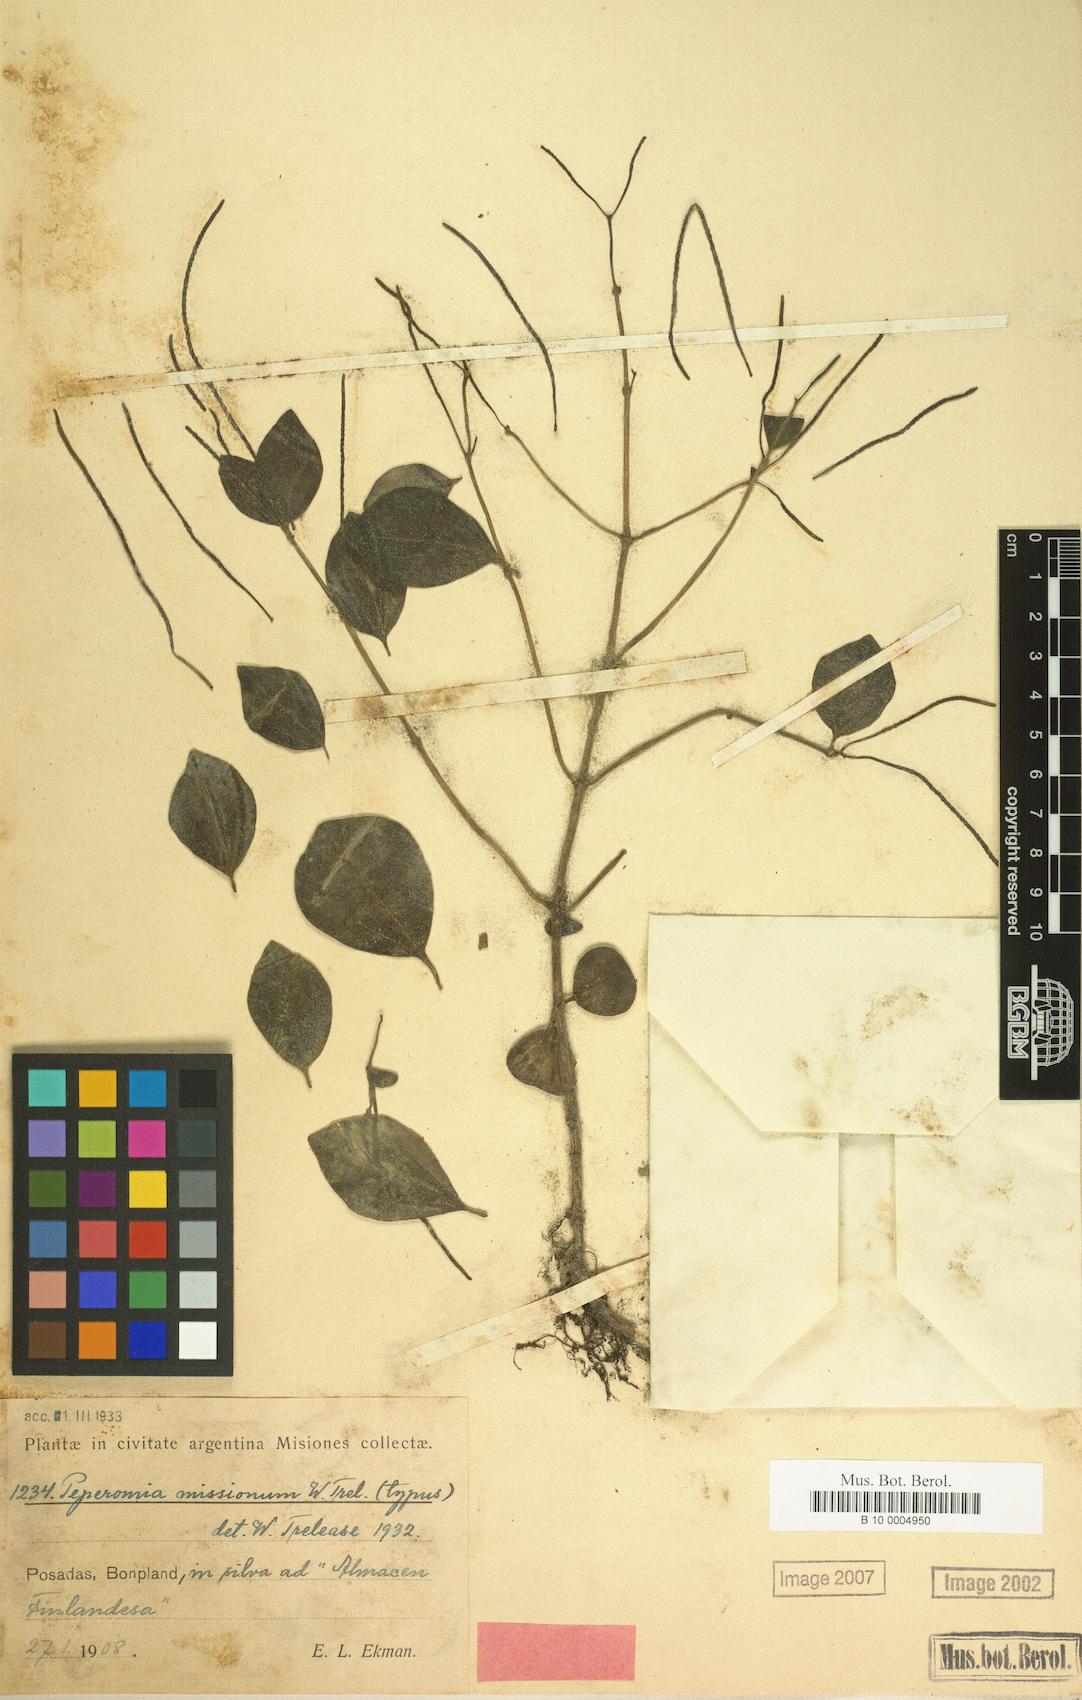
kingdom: Plantae
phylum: Tracheophyta
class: Magnoliopsida
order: Piperales
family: Piperaceae
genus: Peperomia
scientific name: Peperomia
